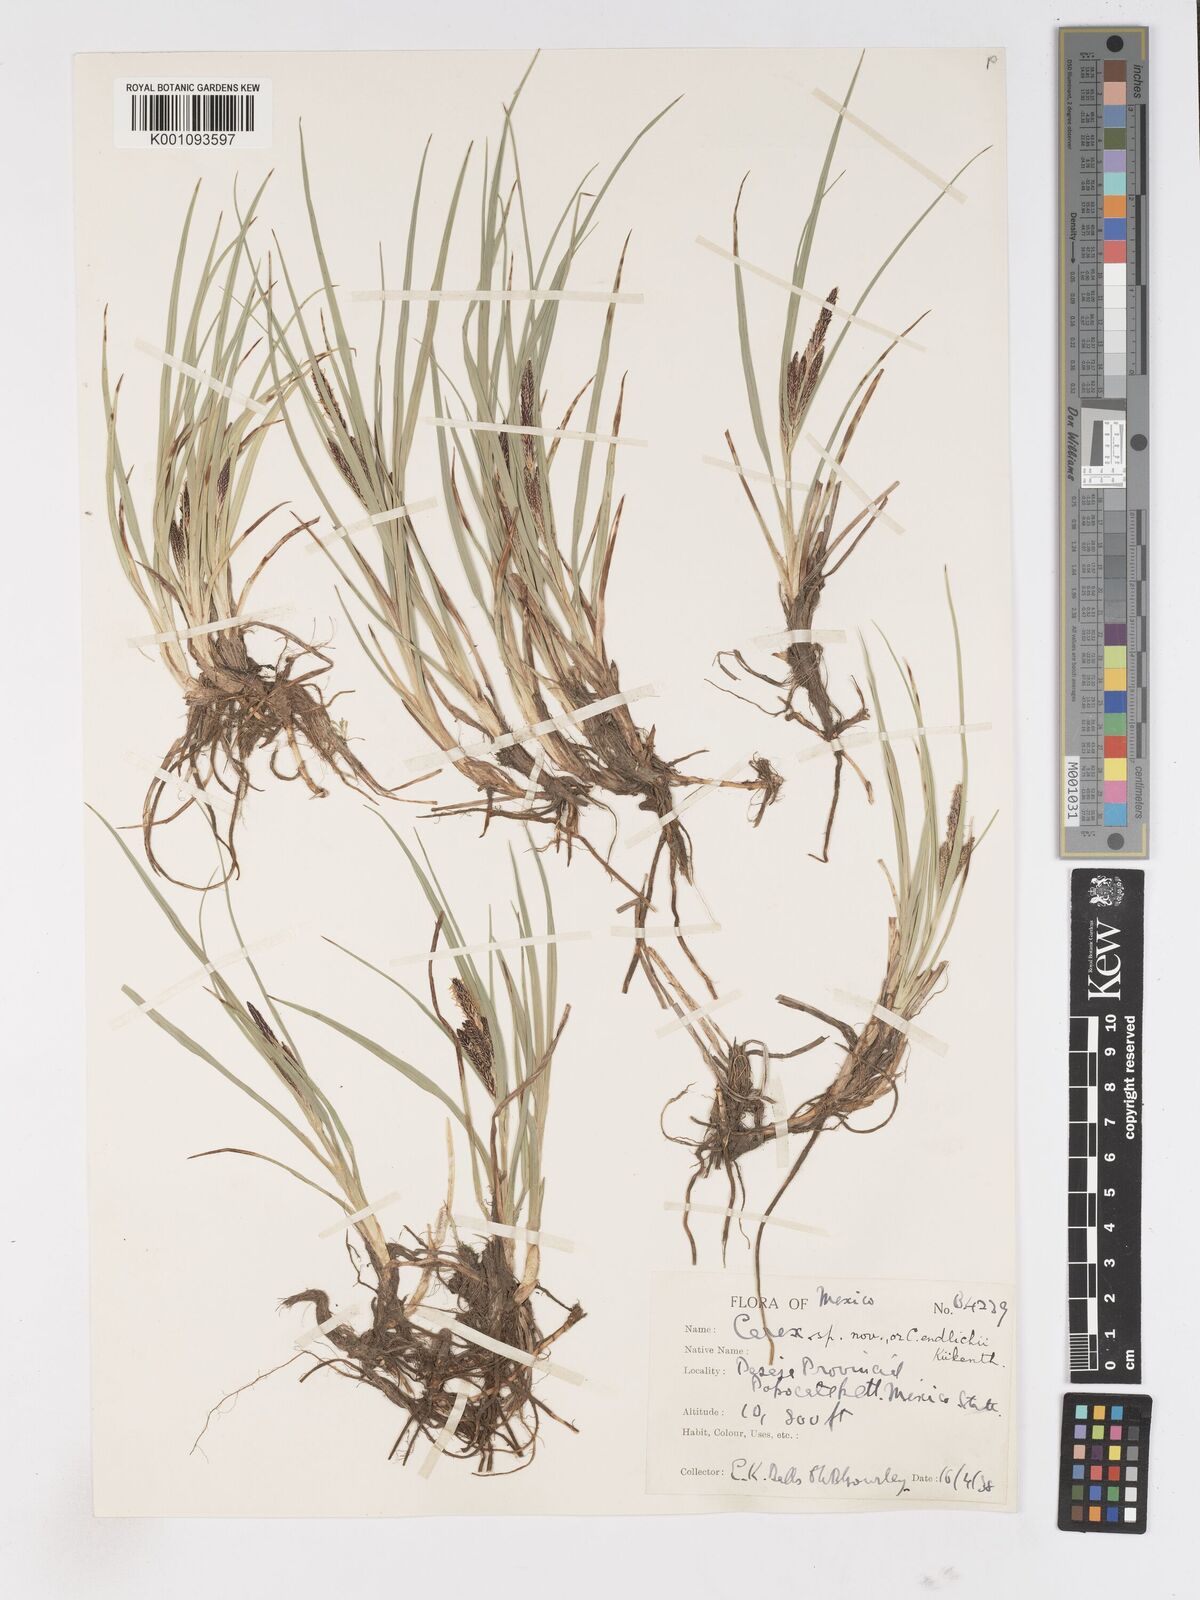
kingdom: Plantae
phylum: Tracheophyta
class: Liliopsida
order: Poales
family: Cyperaceae
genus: Carex
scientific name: Carex endlichii
